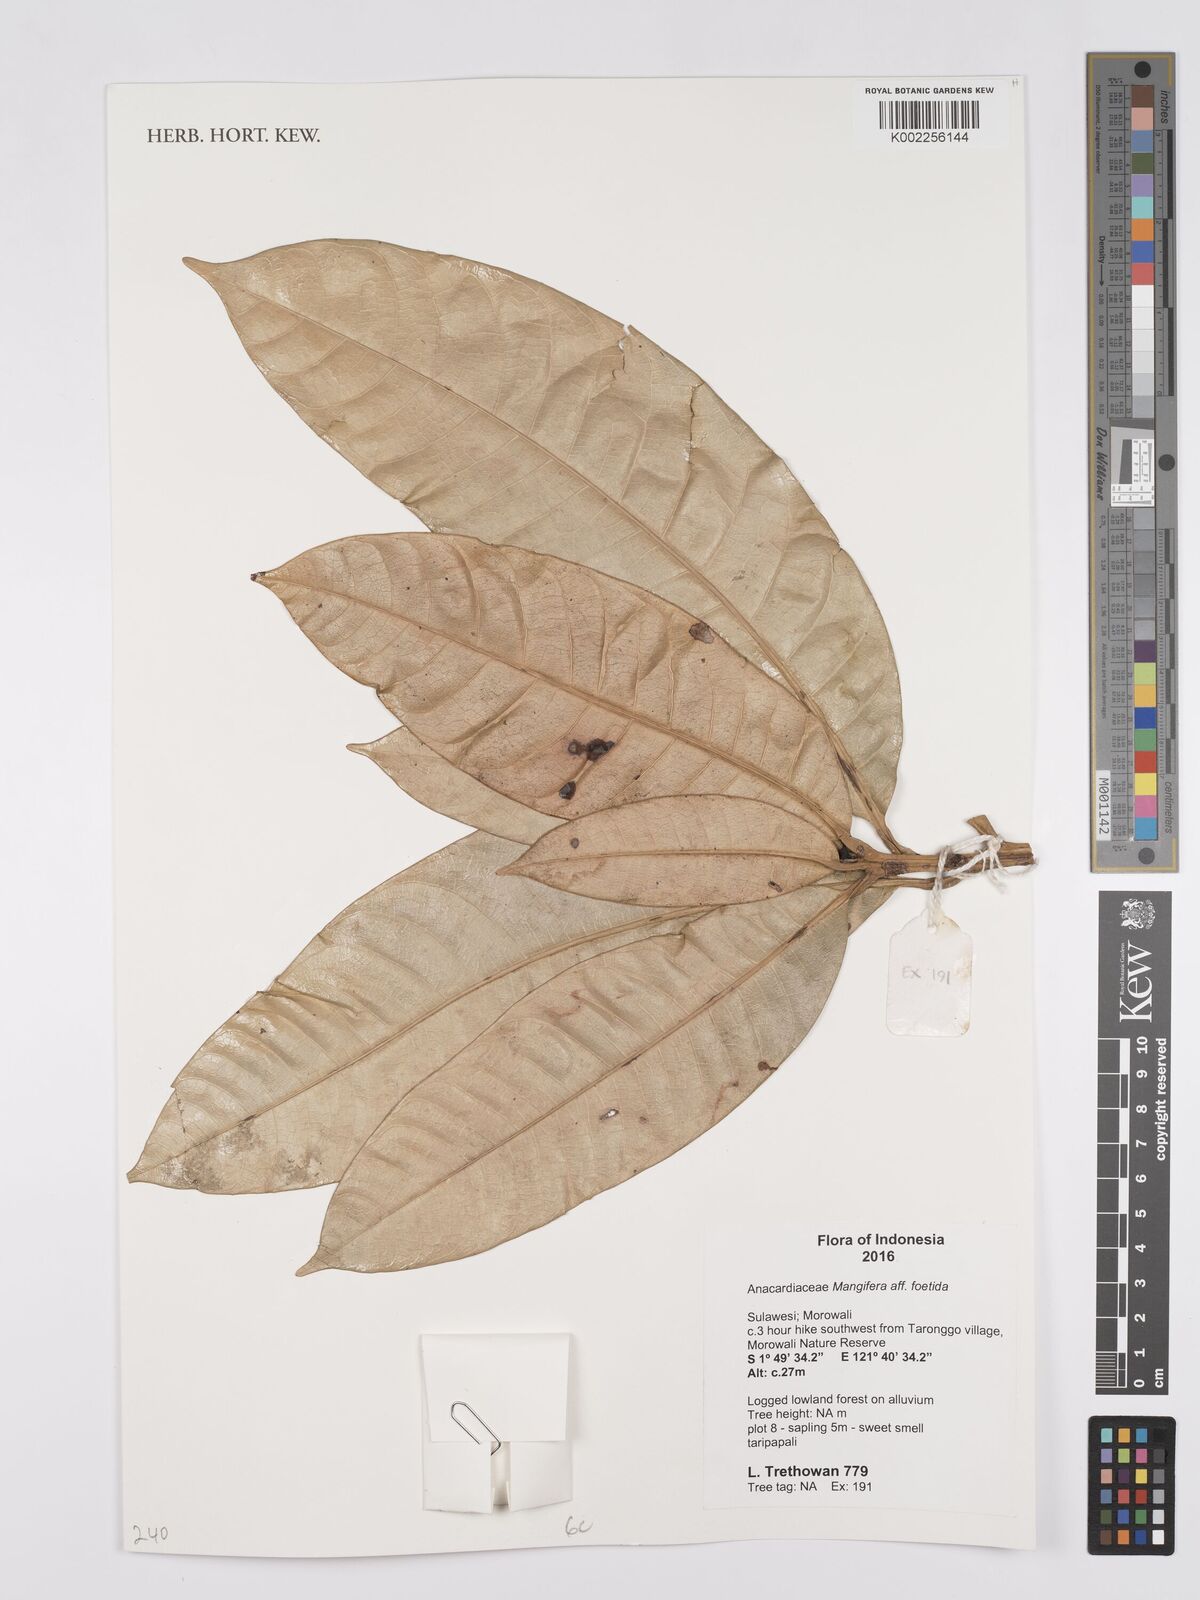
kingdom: Plantae
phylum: Tracheophyta
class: Magnoliopsida
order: Sapindales
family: Anacardiaceae
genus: Mangifera
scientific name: Mangifera
